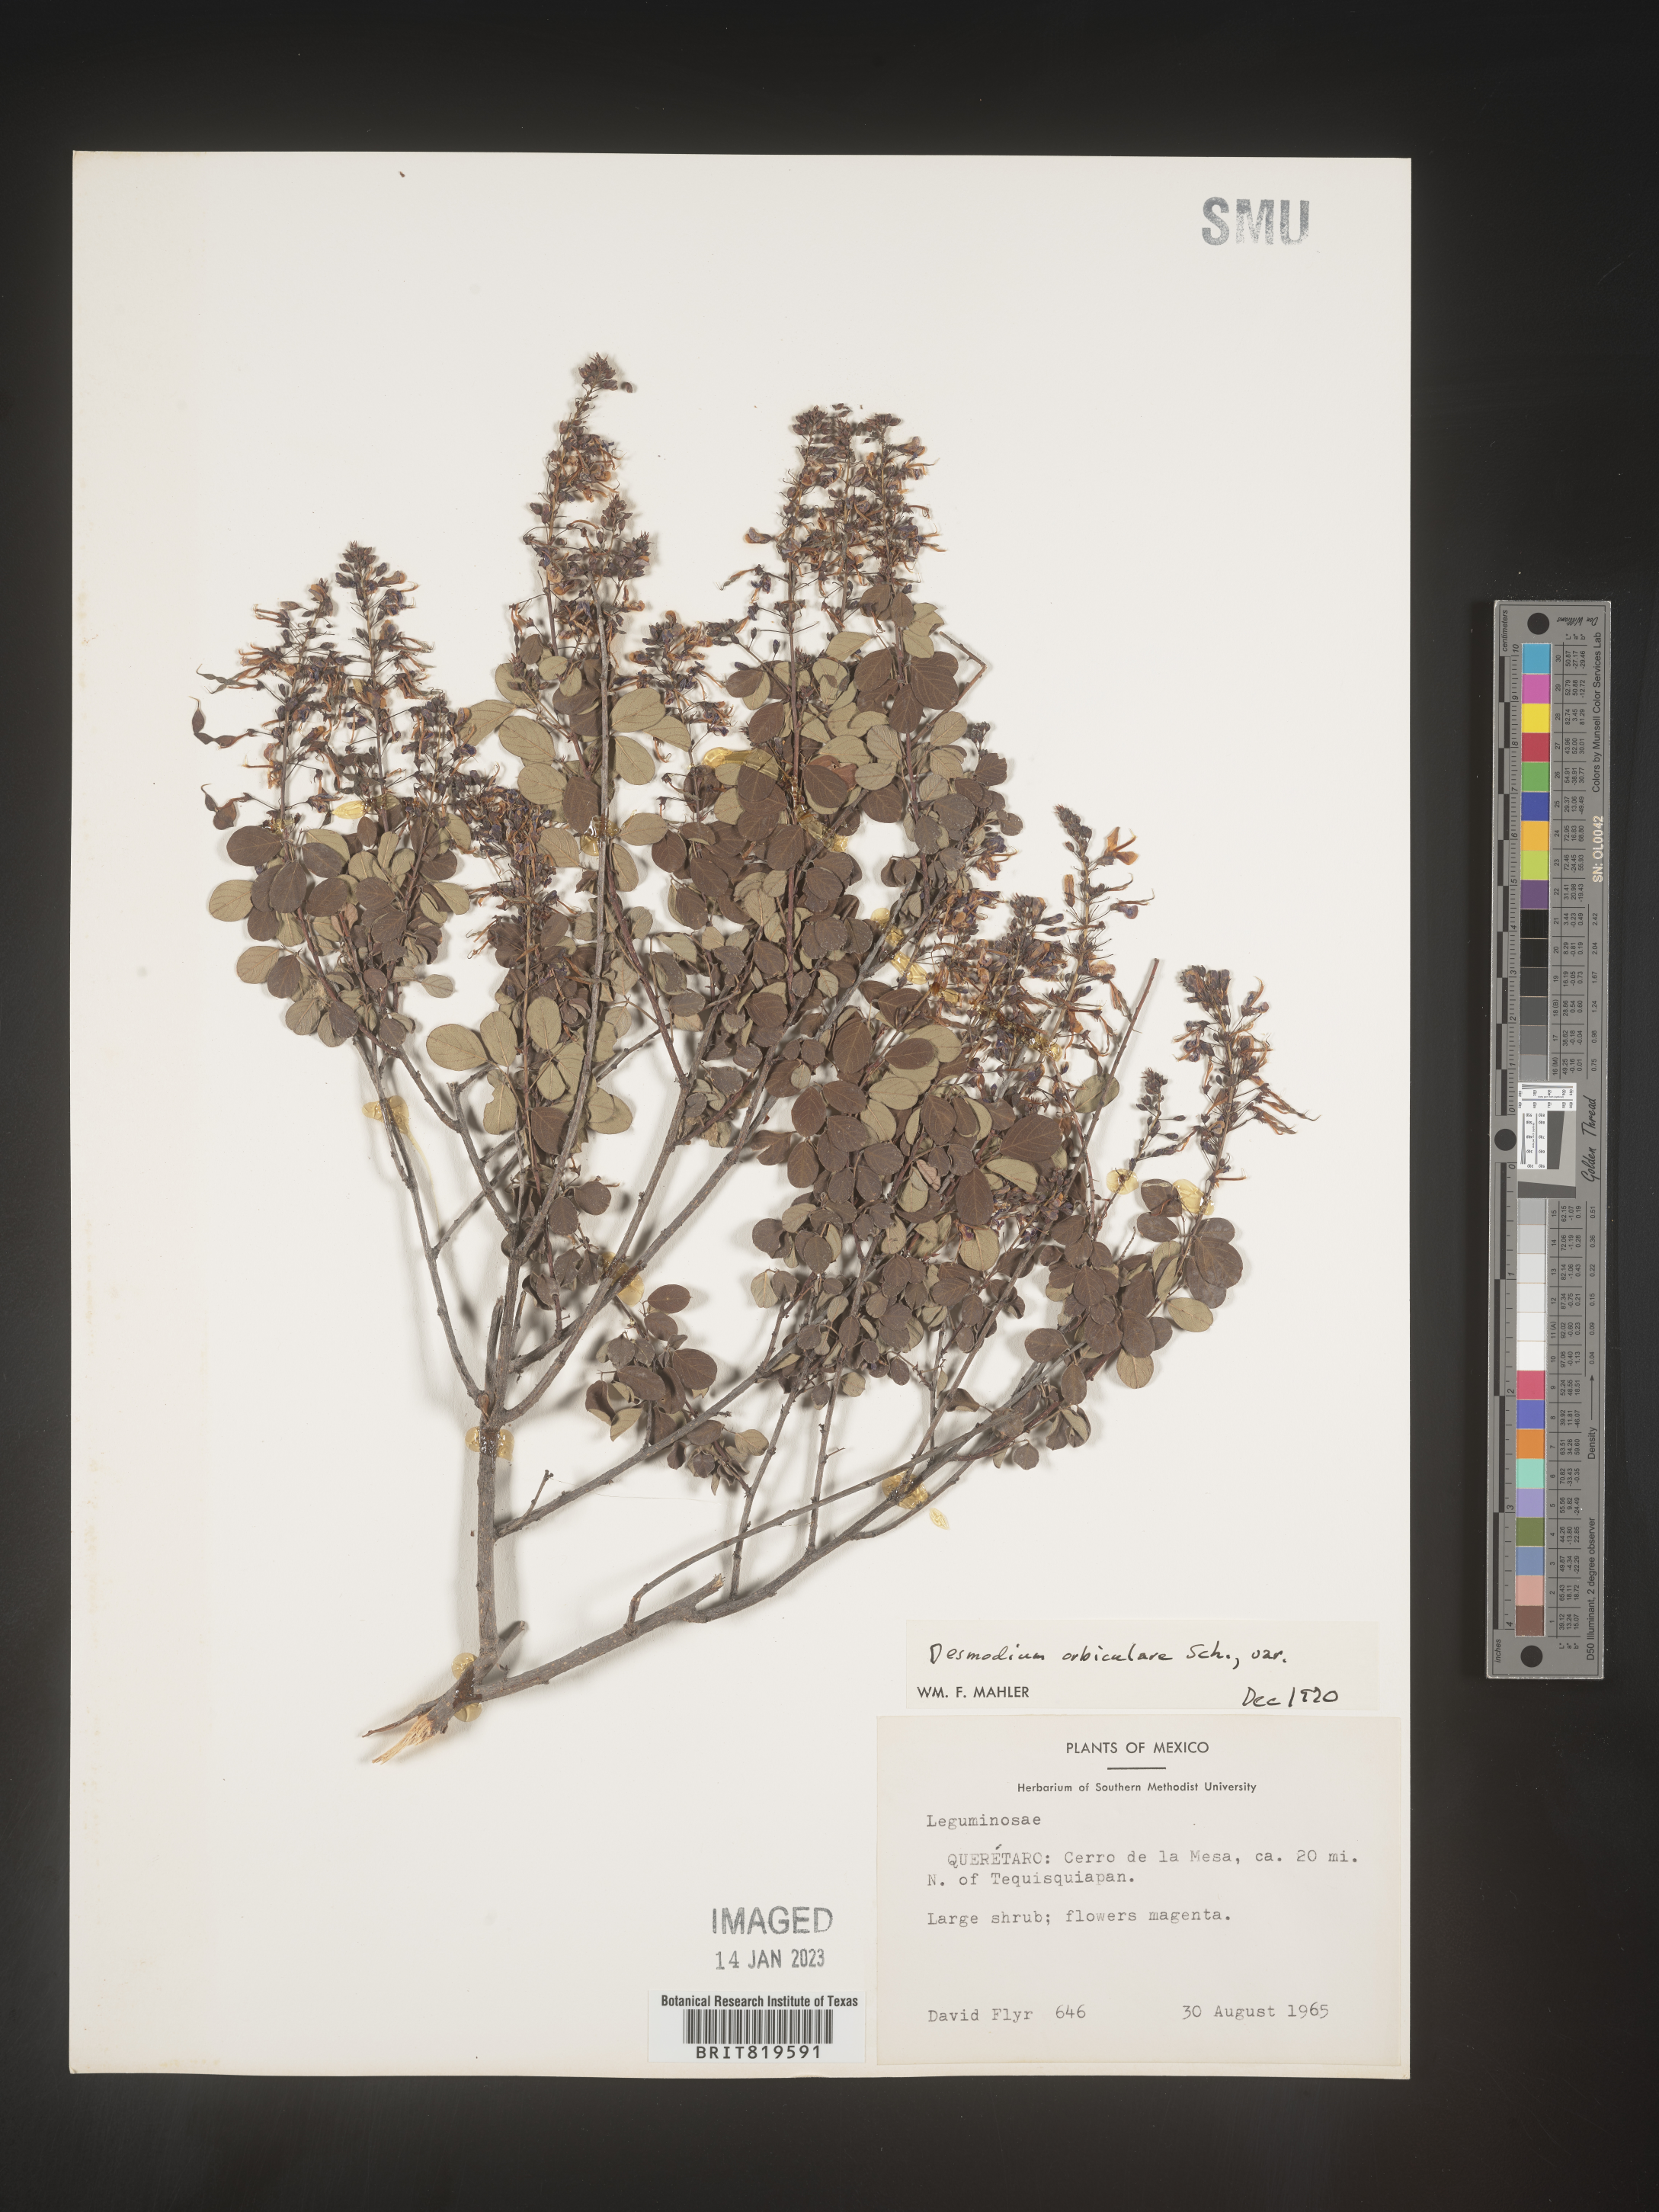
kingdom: Plantae
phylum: Tracheophyta
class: Magnoliopsida
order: Fabales
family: Fabaceae
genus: Desmodium
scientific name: Desmodium
